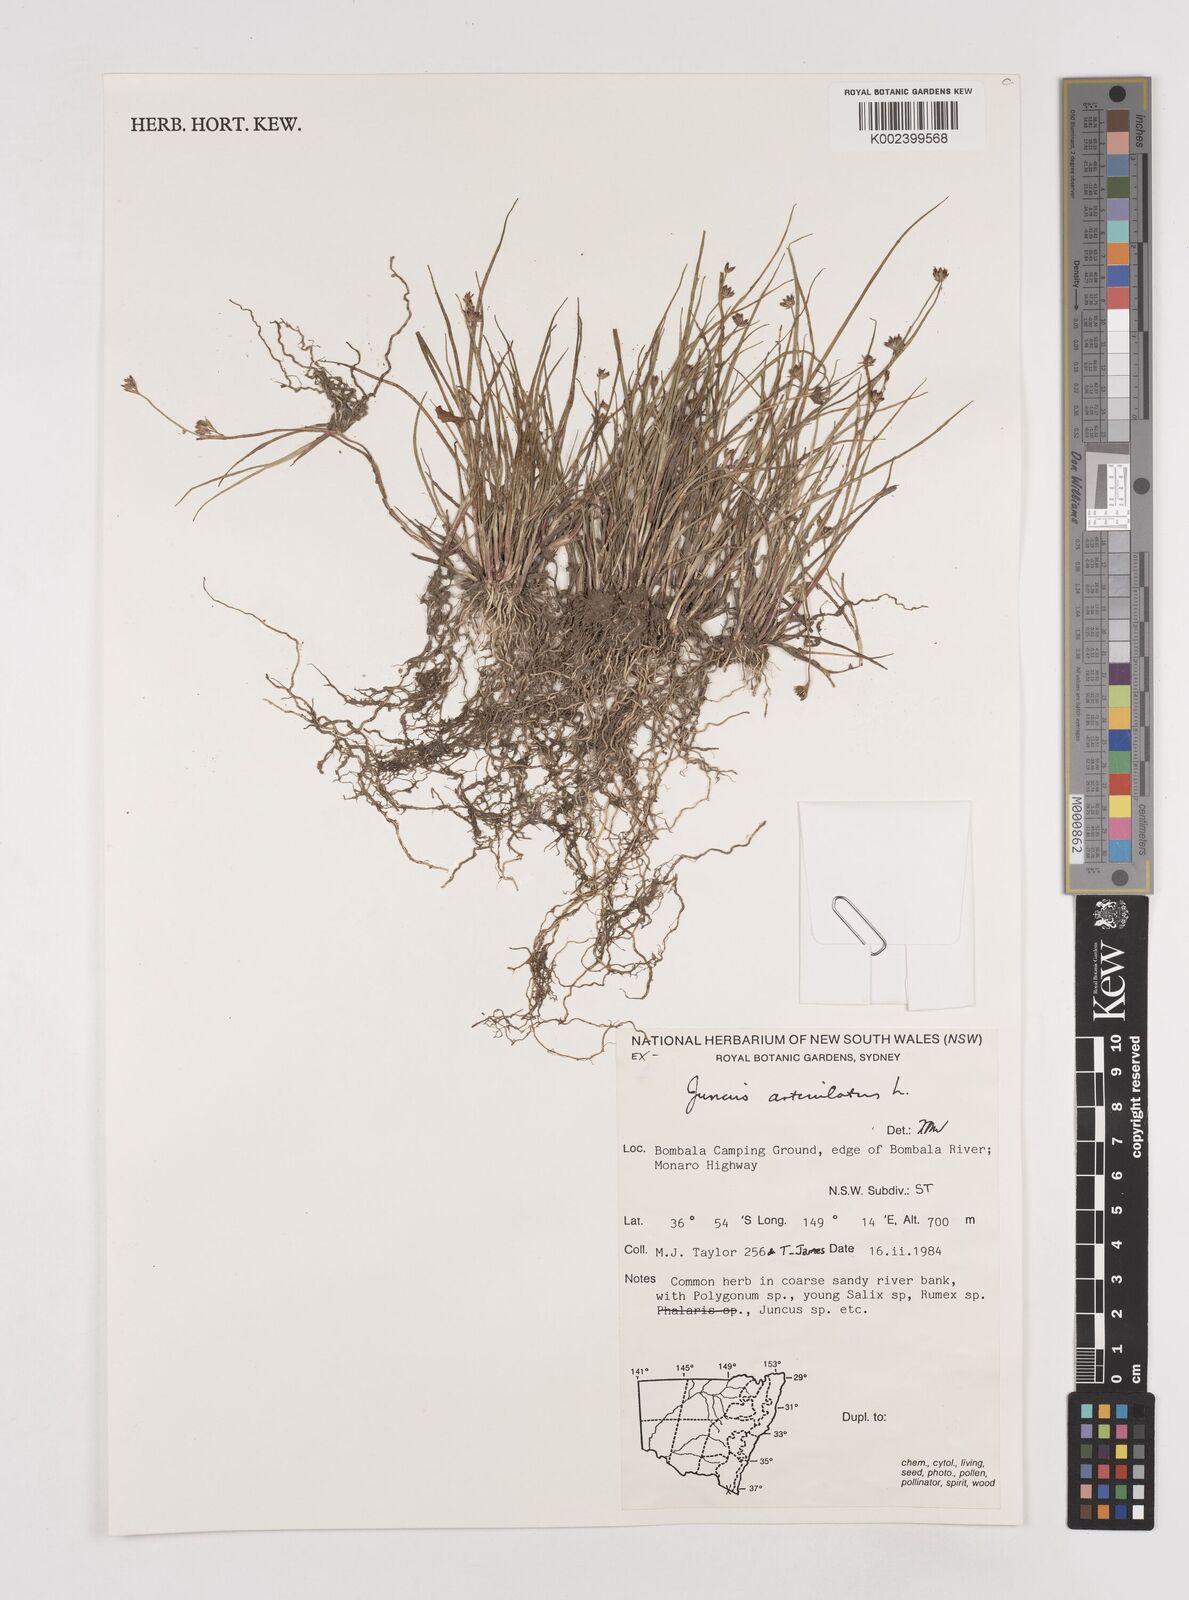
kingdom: Plantae
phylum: Tracheophyta
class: Liliopsida
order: Poales
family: Juncaceae
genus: Juncus
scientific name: Juncus articulatus
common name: Jointed rush
